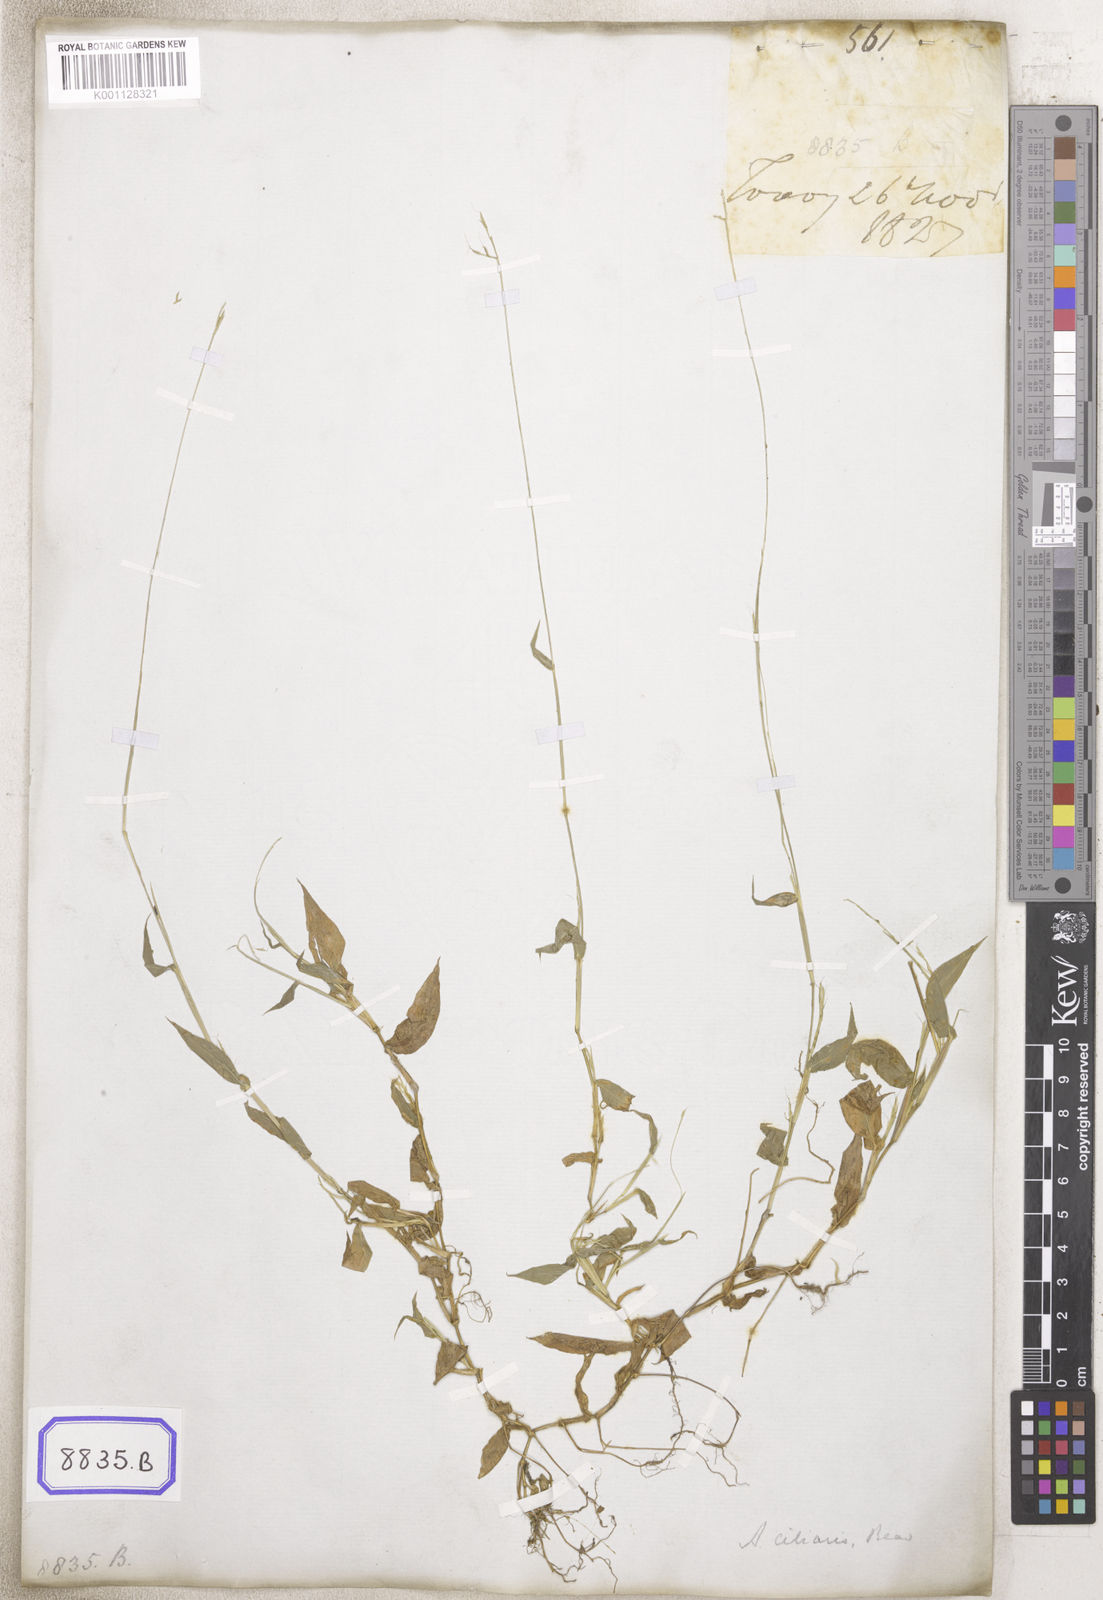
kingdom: Plantae
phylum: Tracheophyta
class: Liliopsida
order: Poales
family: Poaceae
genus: Arthraxon
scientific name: Arthraxon
